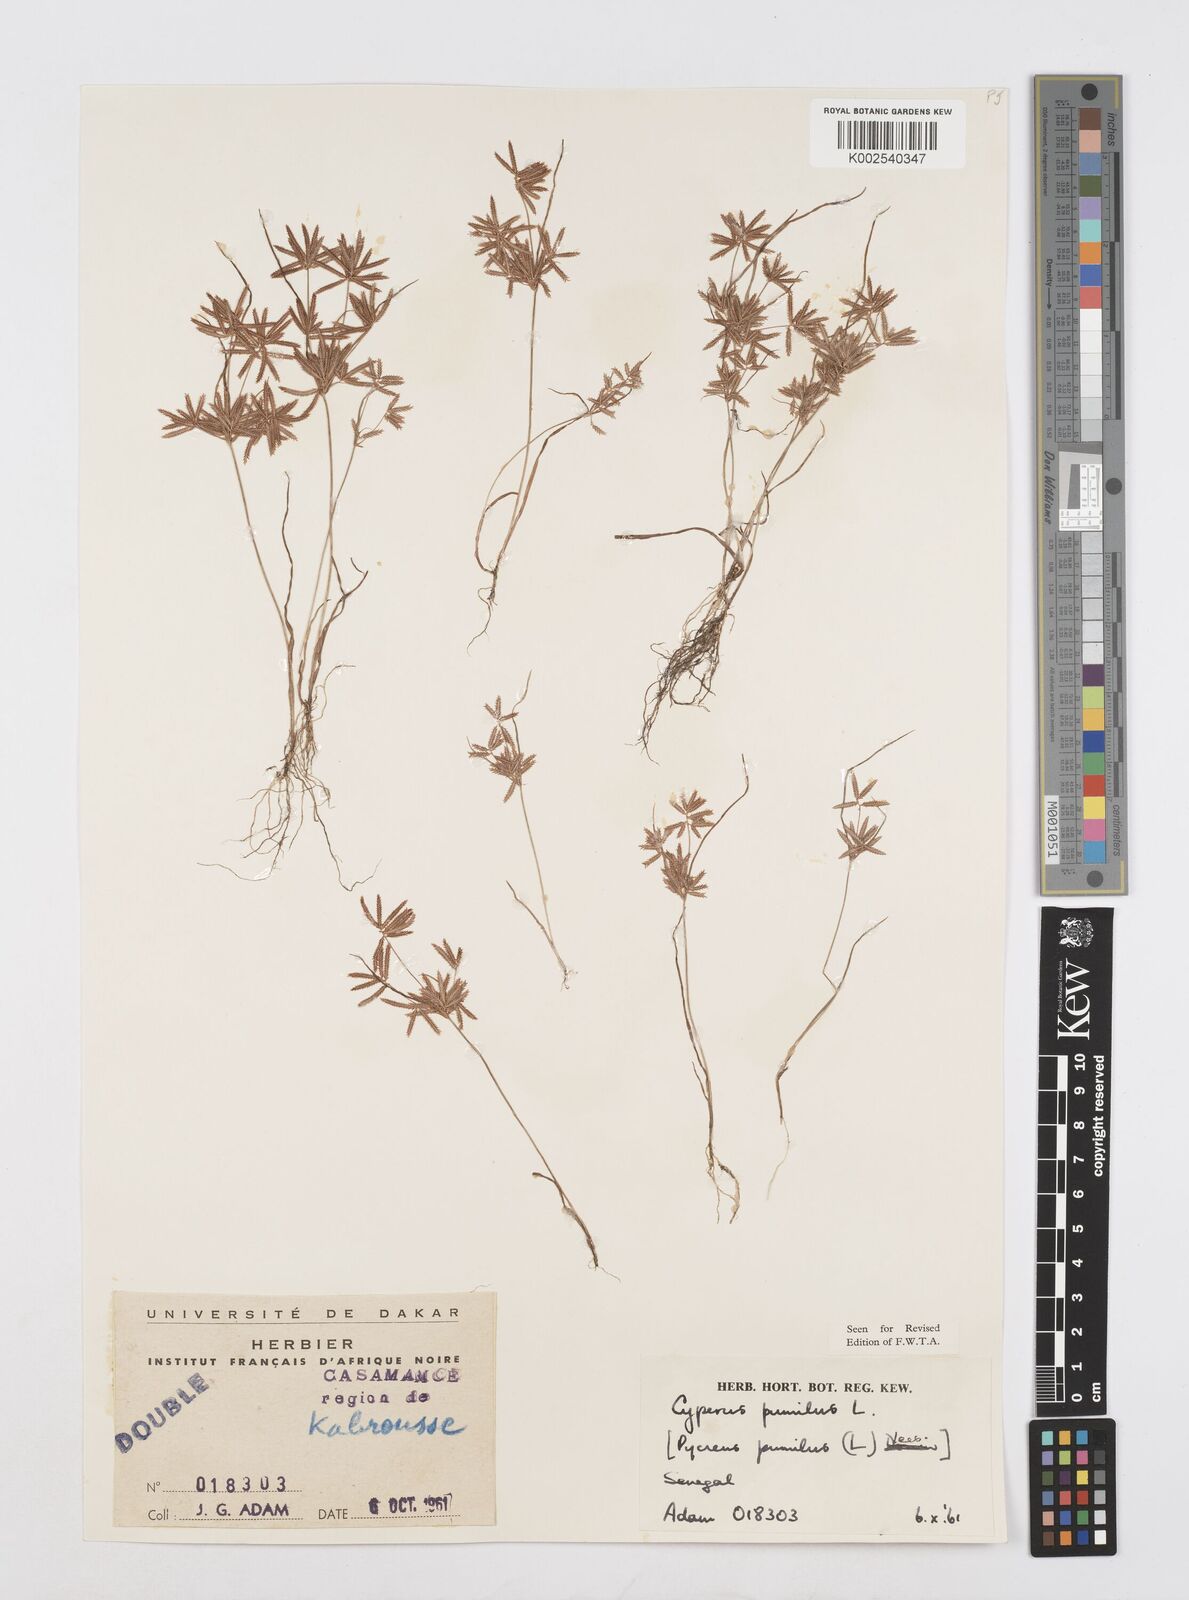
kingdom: Plantae
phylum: Tracheophyta
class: Liliopsida
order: Poales
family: Cyperaceae
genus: Cyperus
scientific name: Cyperus pumilus
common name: Low flatsedge
